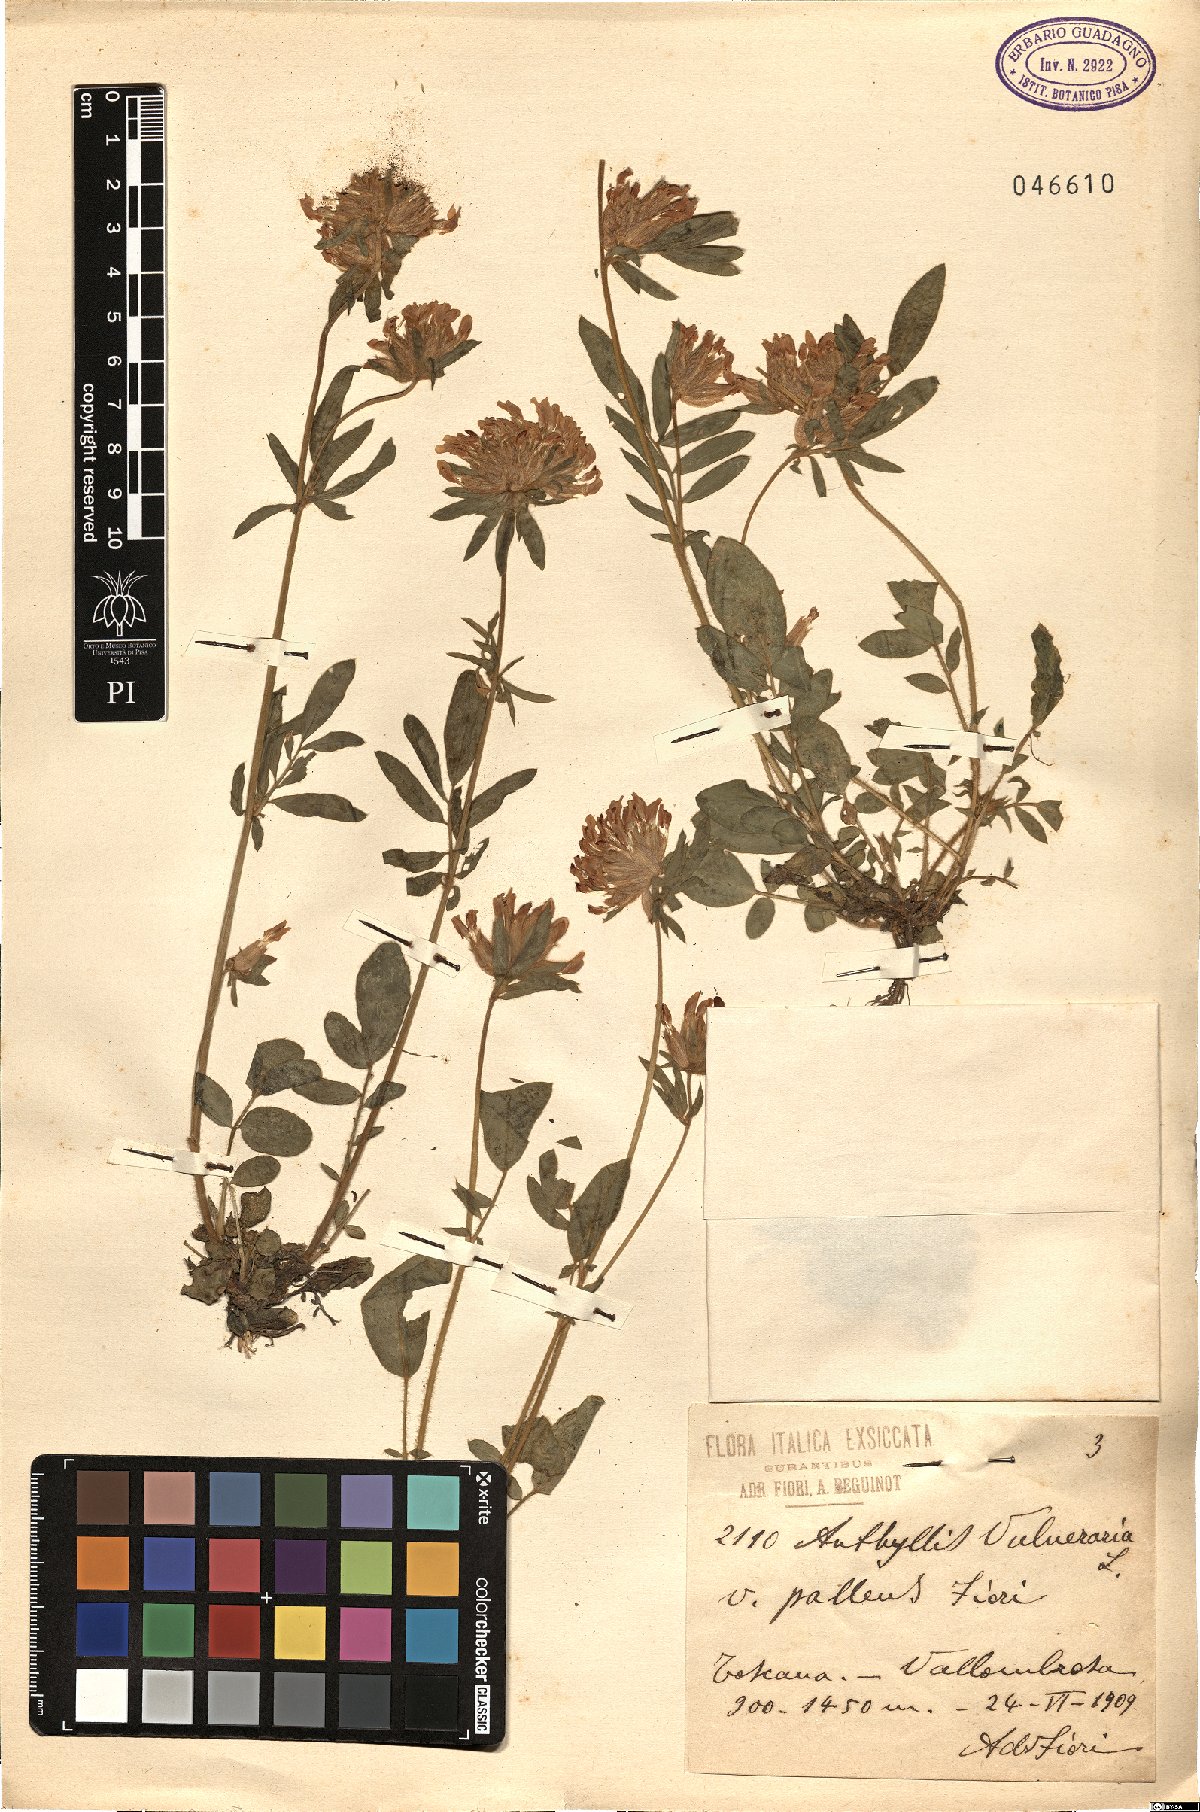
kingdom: Plantae
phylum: Tracheophyta
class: Magnoliopsida
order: Fabales
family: Fabaceae
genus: Anthyllis
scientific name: Anthyllis vulneraria
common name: Kidney vetch
